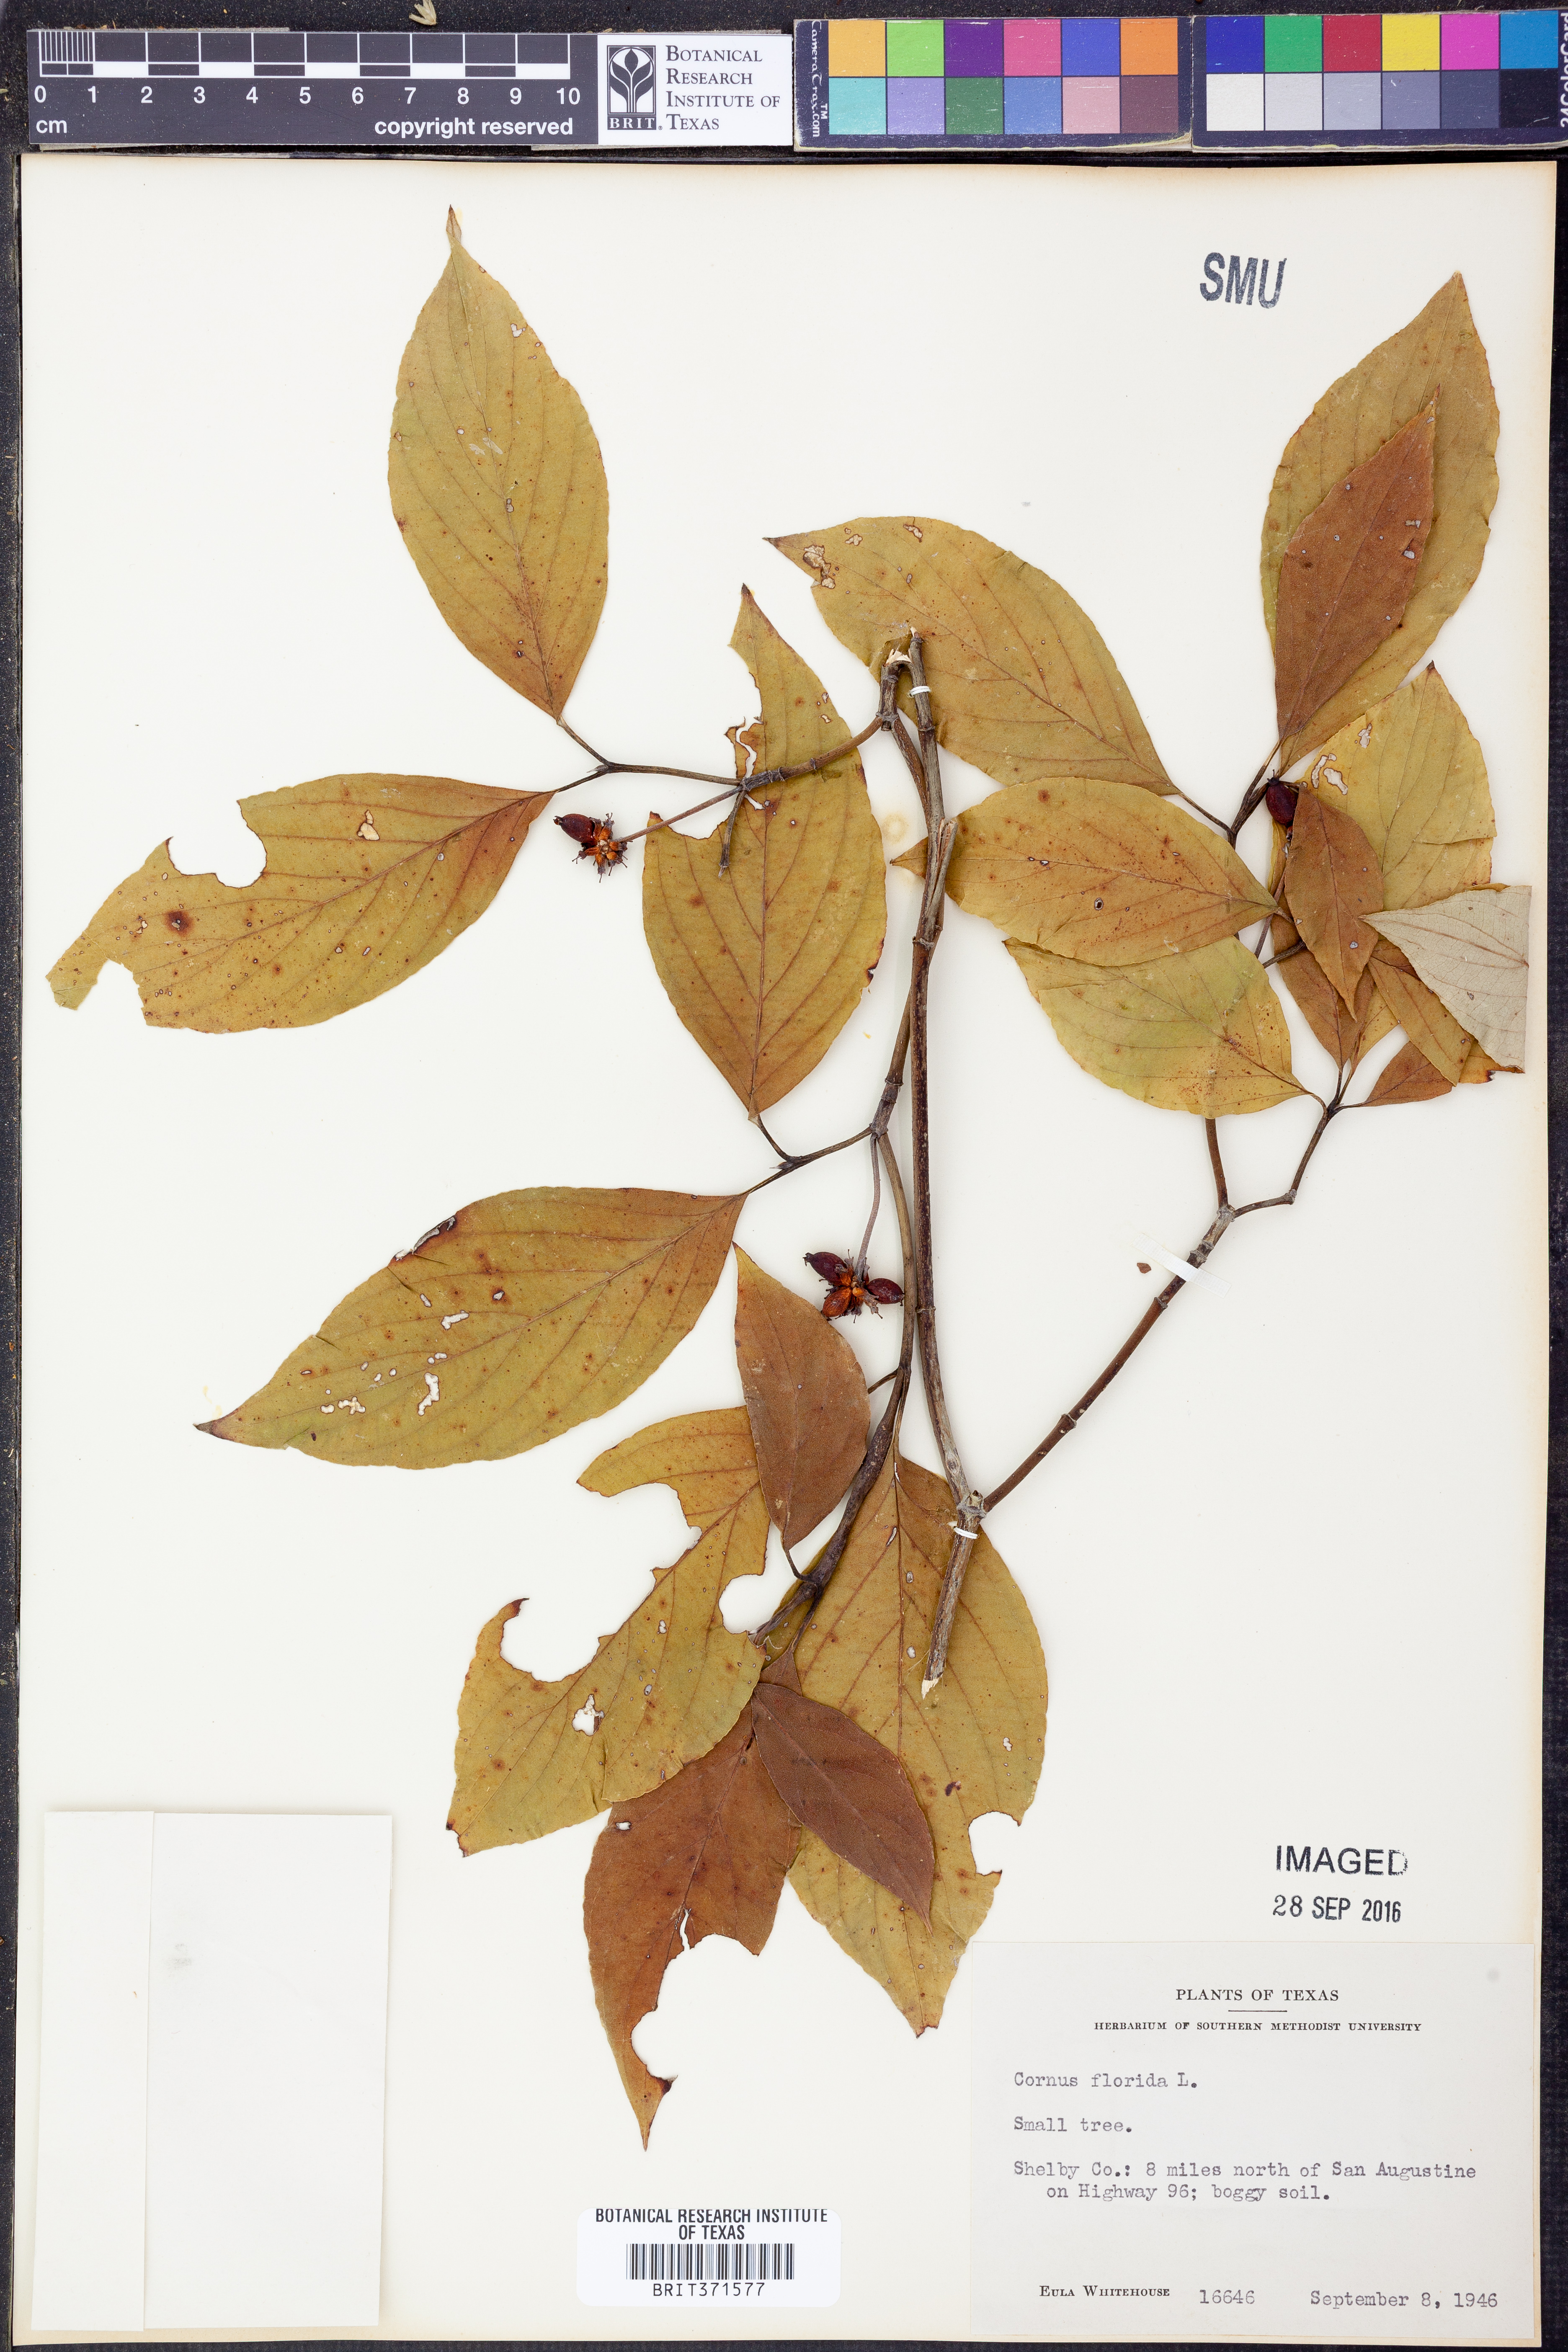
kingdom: Plantae
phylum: Tracheophyta
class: Magnoliopsida
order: Cornales
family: Cornaceae
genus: Cornus
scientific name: Cornus florida
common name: Flowering dogwood
